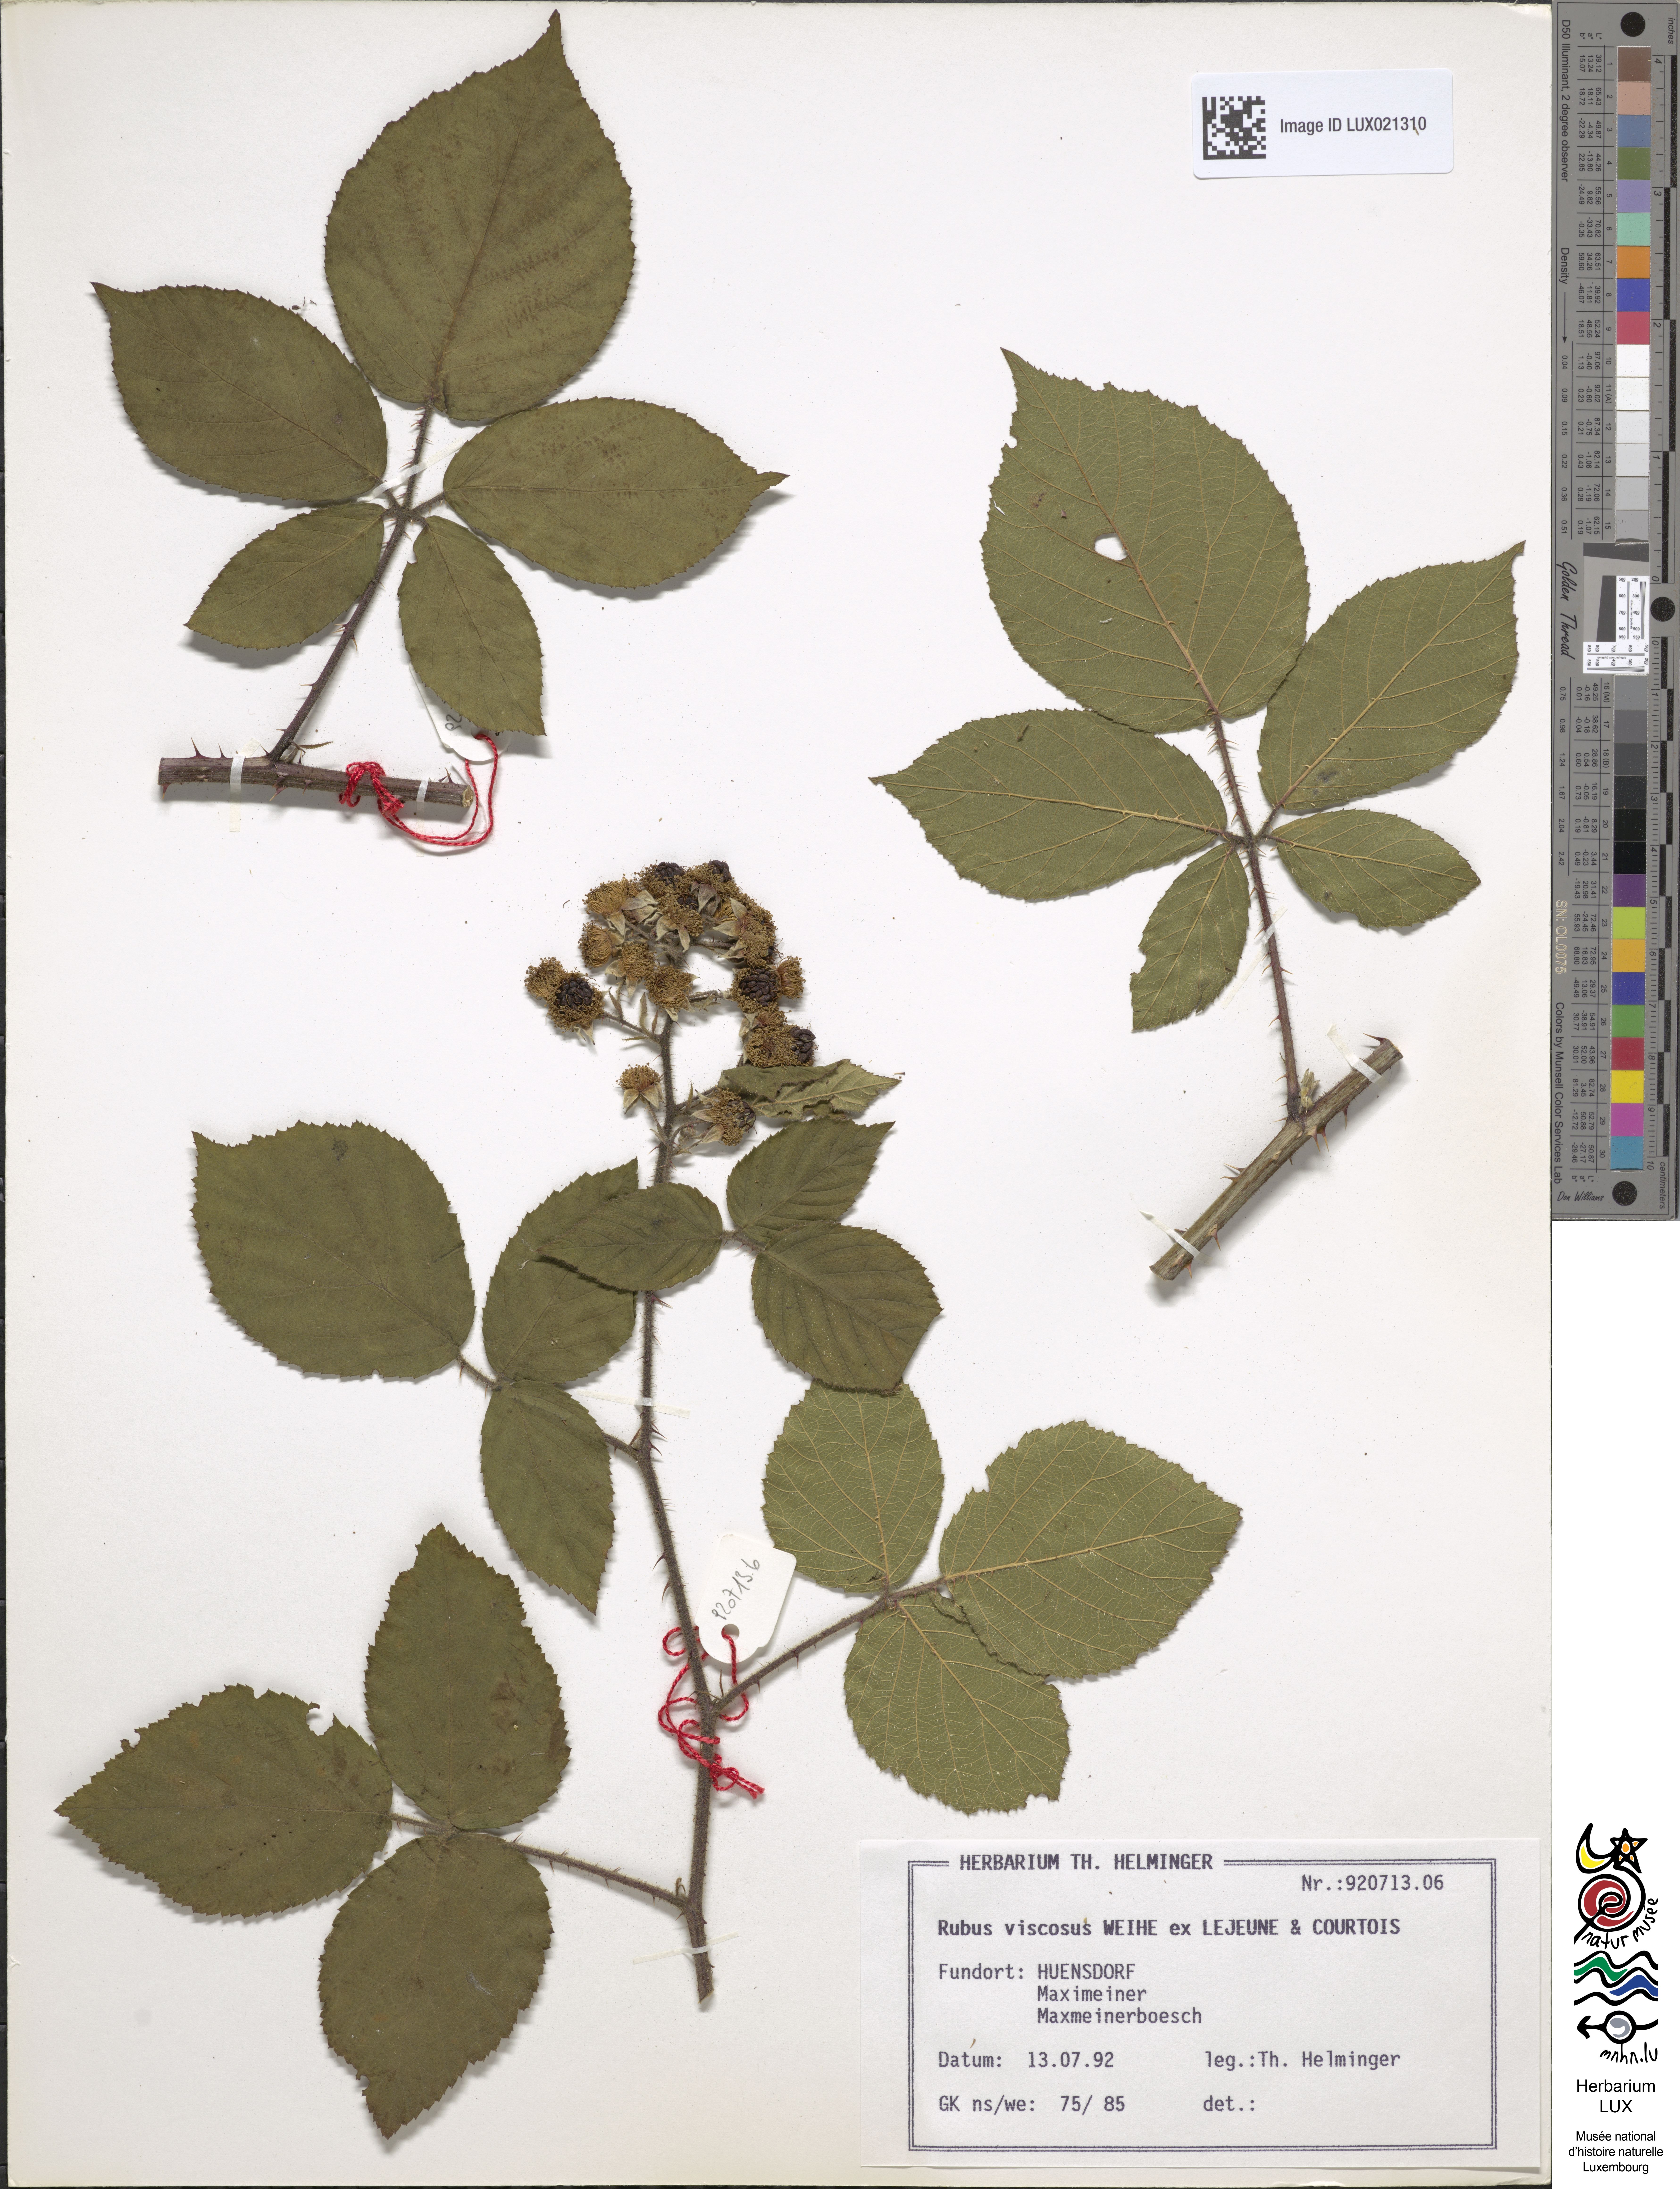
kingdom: Plantae
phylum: Tracheophyta
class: Magnoliopsida
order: Rosales
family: Rosaceae
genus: Rubus
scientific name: Rubus viscosus
